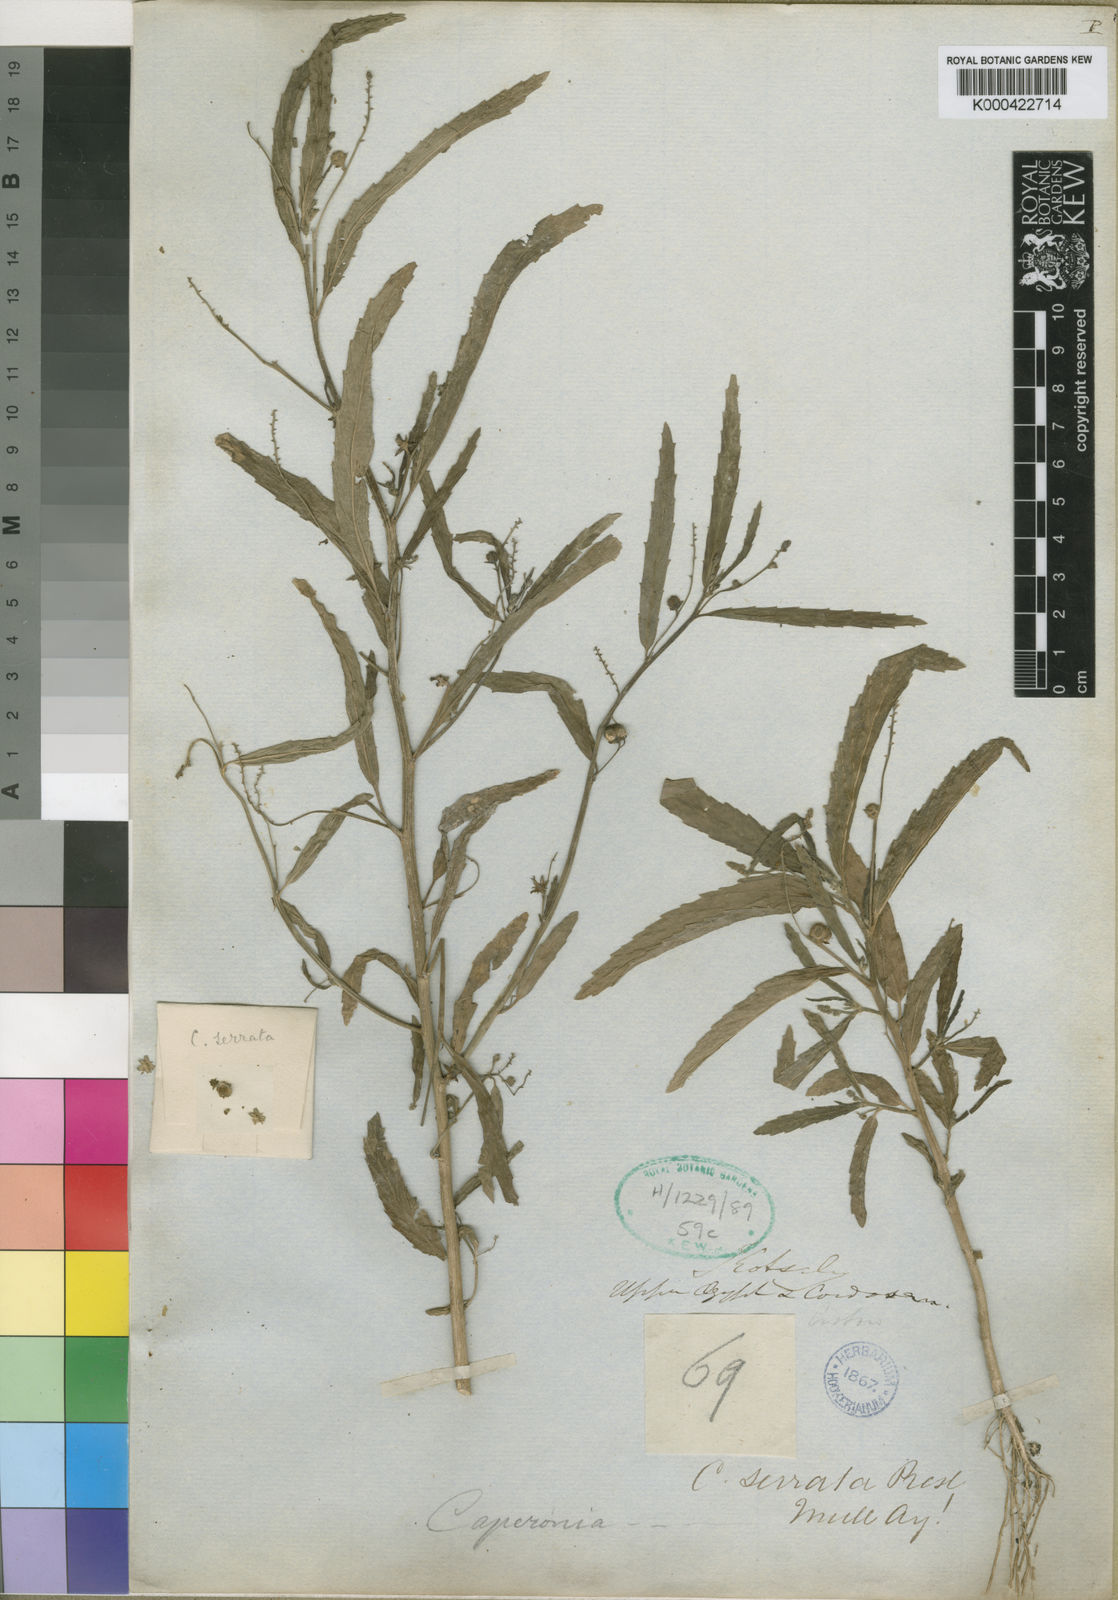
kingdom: Plantae
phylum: Tracheophyta
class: Magnoliopsida
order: Malpighiales
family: Euphorbiaceae
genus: Caperonia
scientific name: Caperonia serrata
